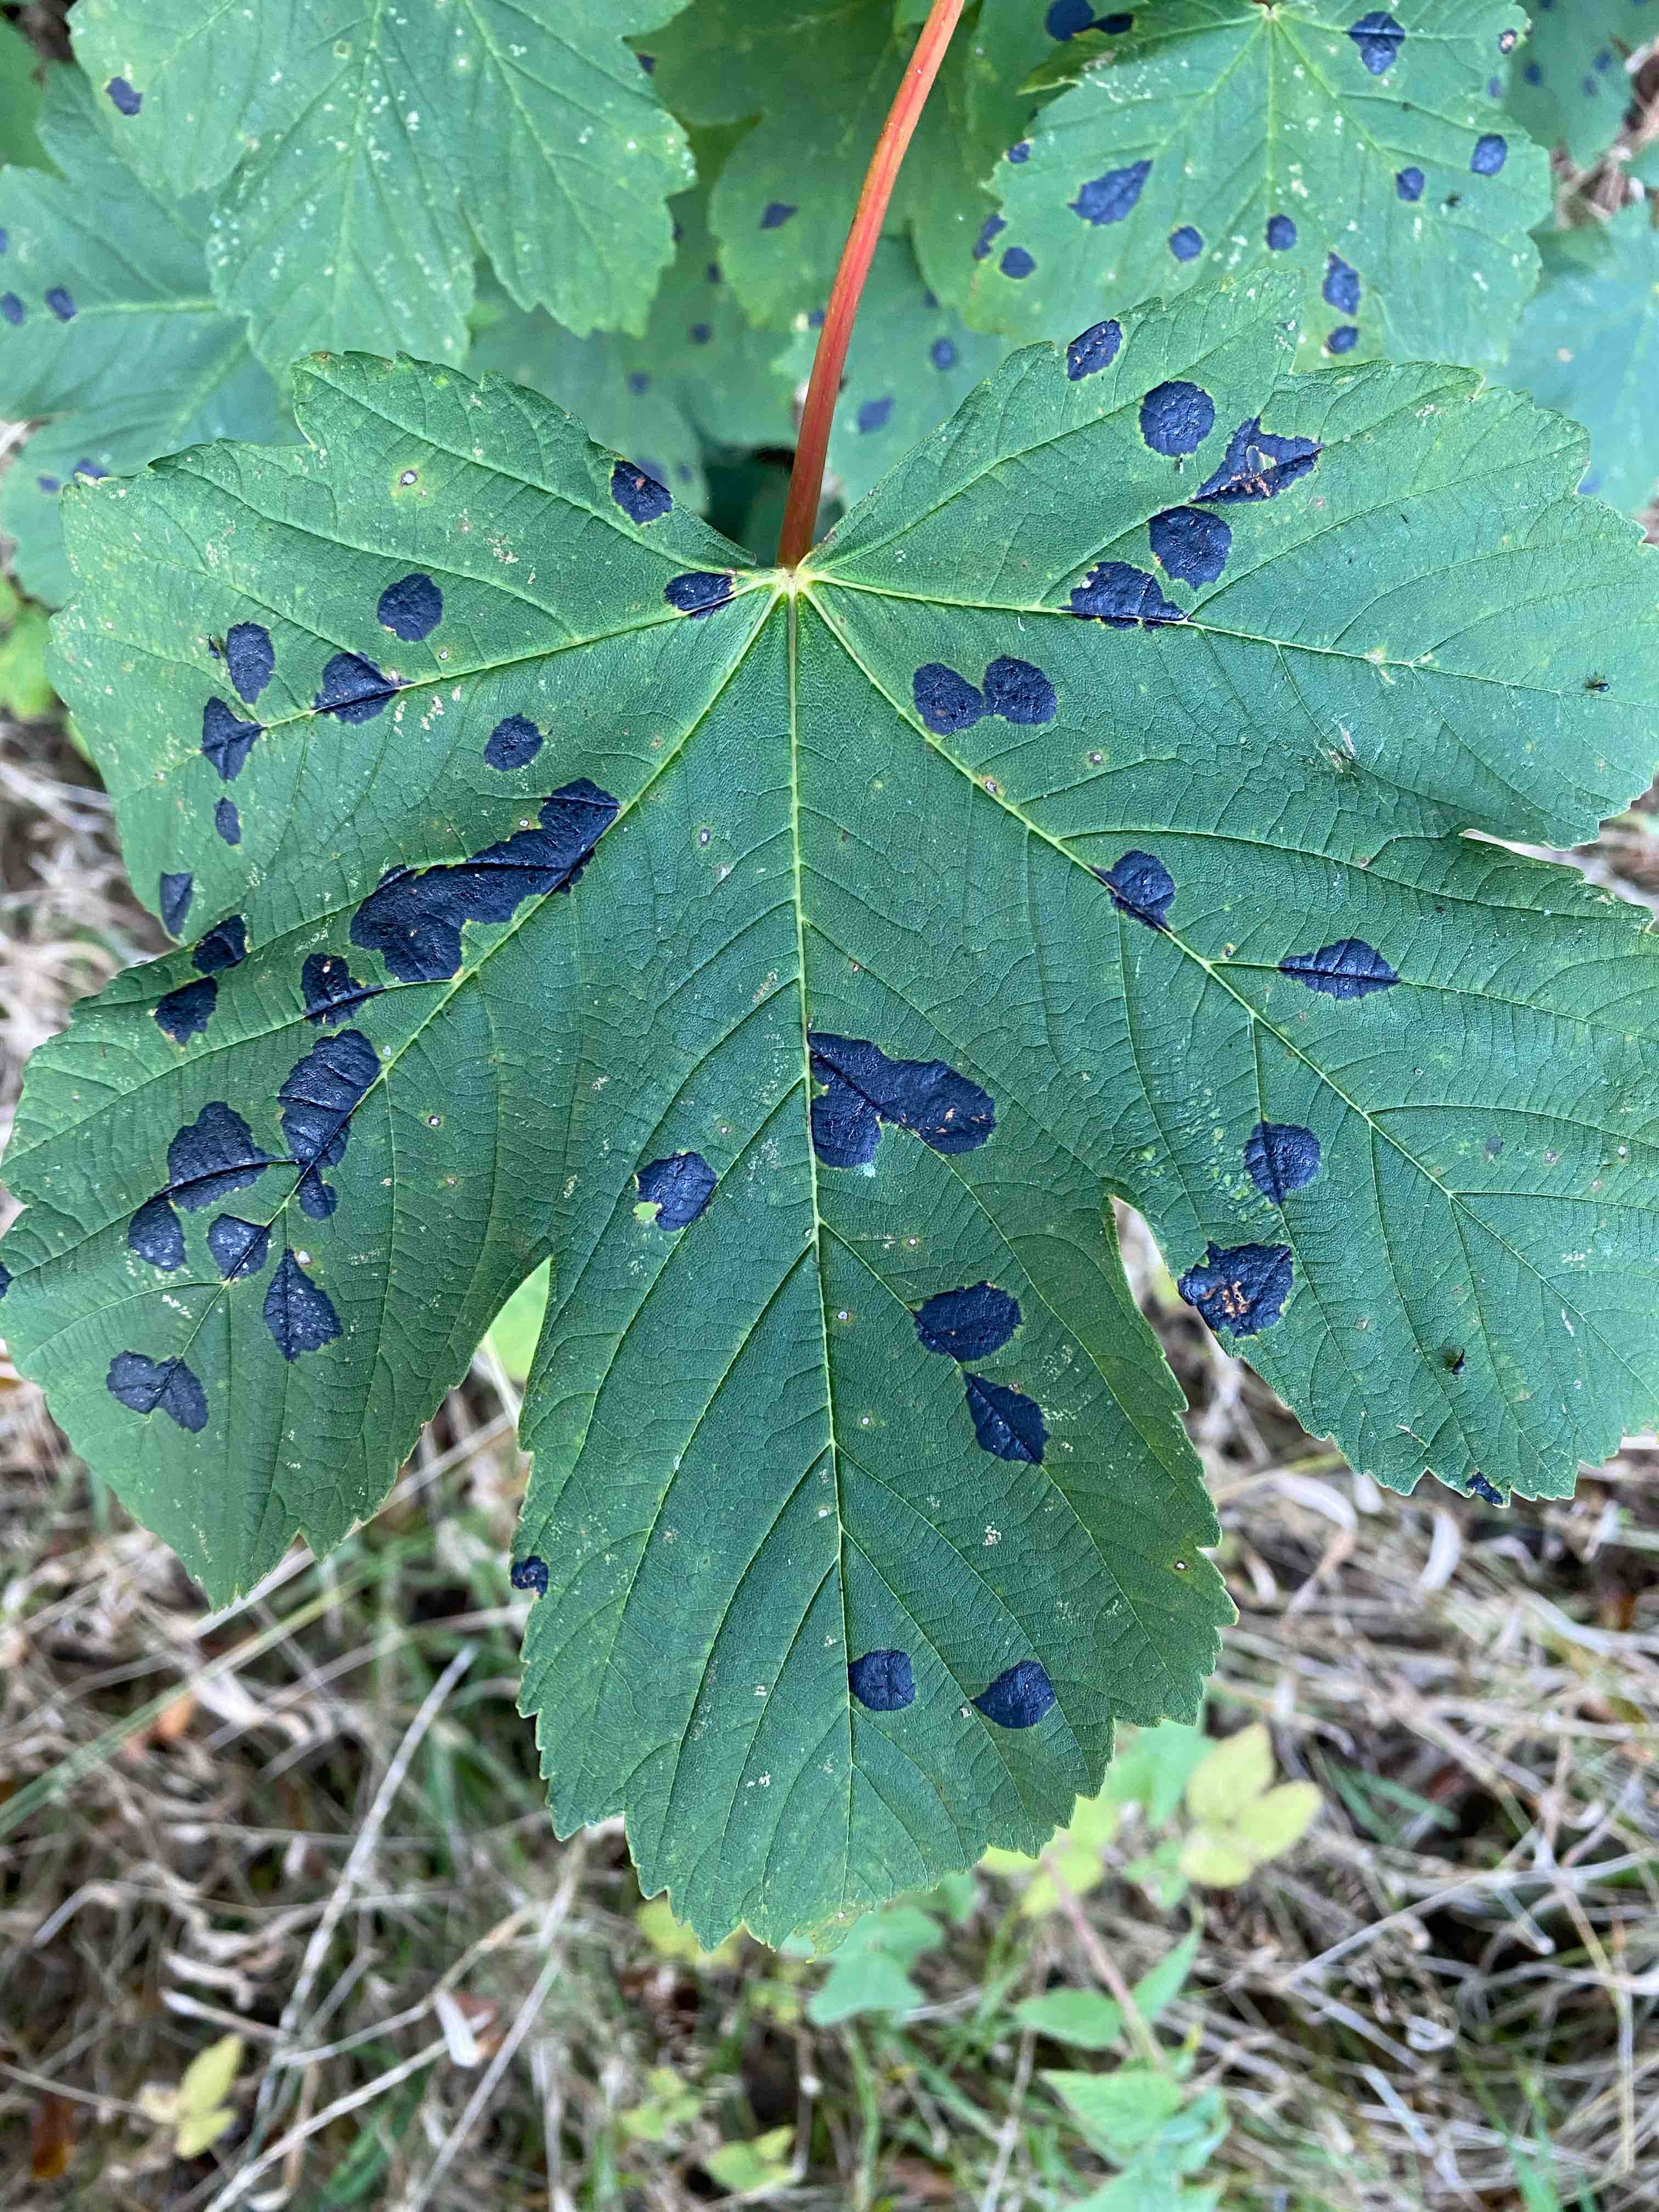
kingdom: Fungi
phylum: Ascomycota
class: Leotiomycetes
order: Rhytismatales
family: Rhytismataceae
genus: Rhytisma
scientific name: Rhytisma acerinum
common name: ahorn-rynkeplet
